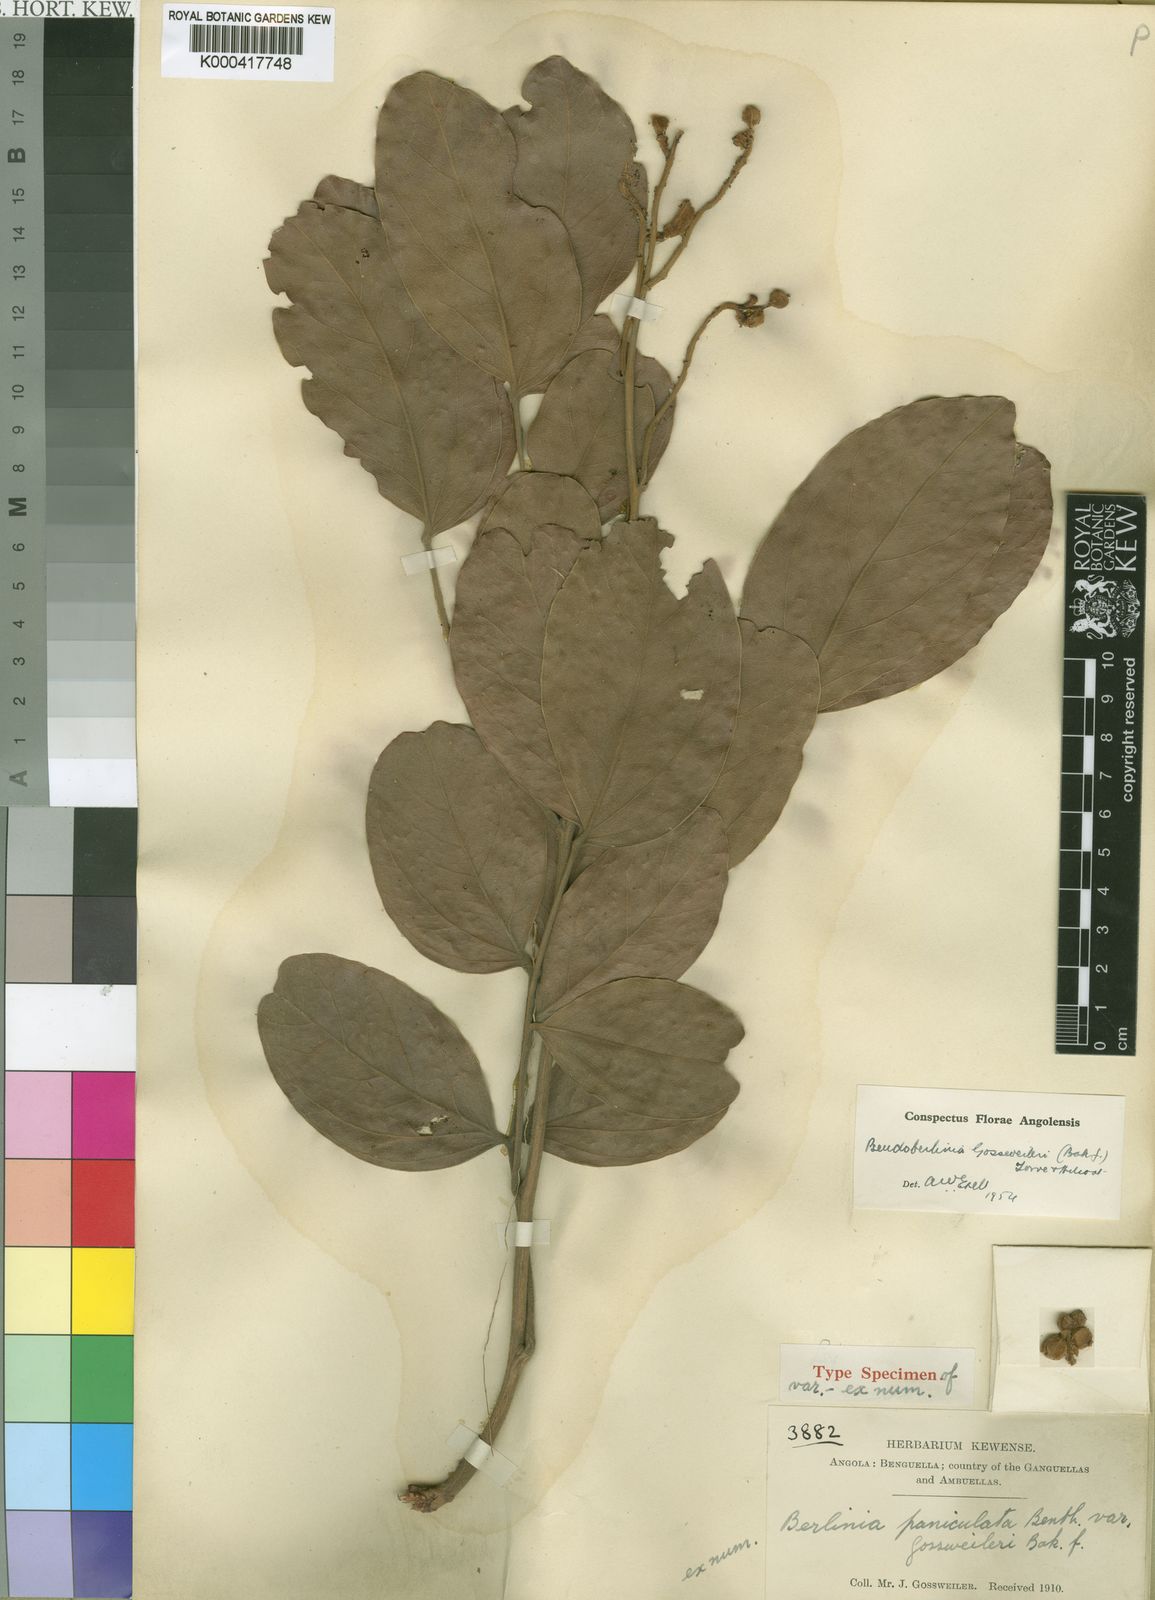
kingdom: Plantae
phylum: Tracheophyta
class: Magnoliopsida
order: Fabales
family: Fabaceae
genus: Julbernardia
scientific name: Julbernardia gossweileri
